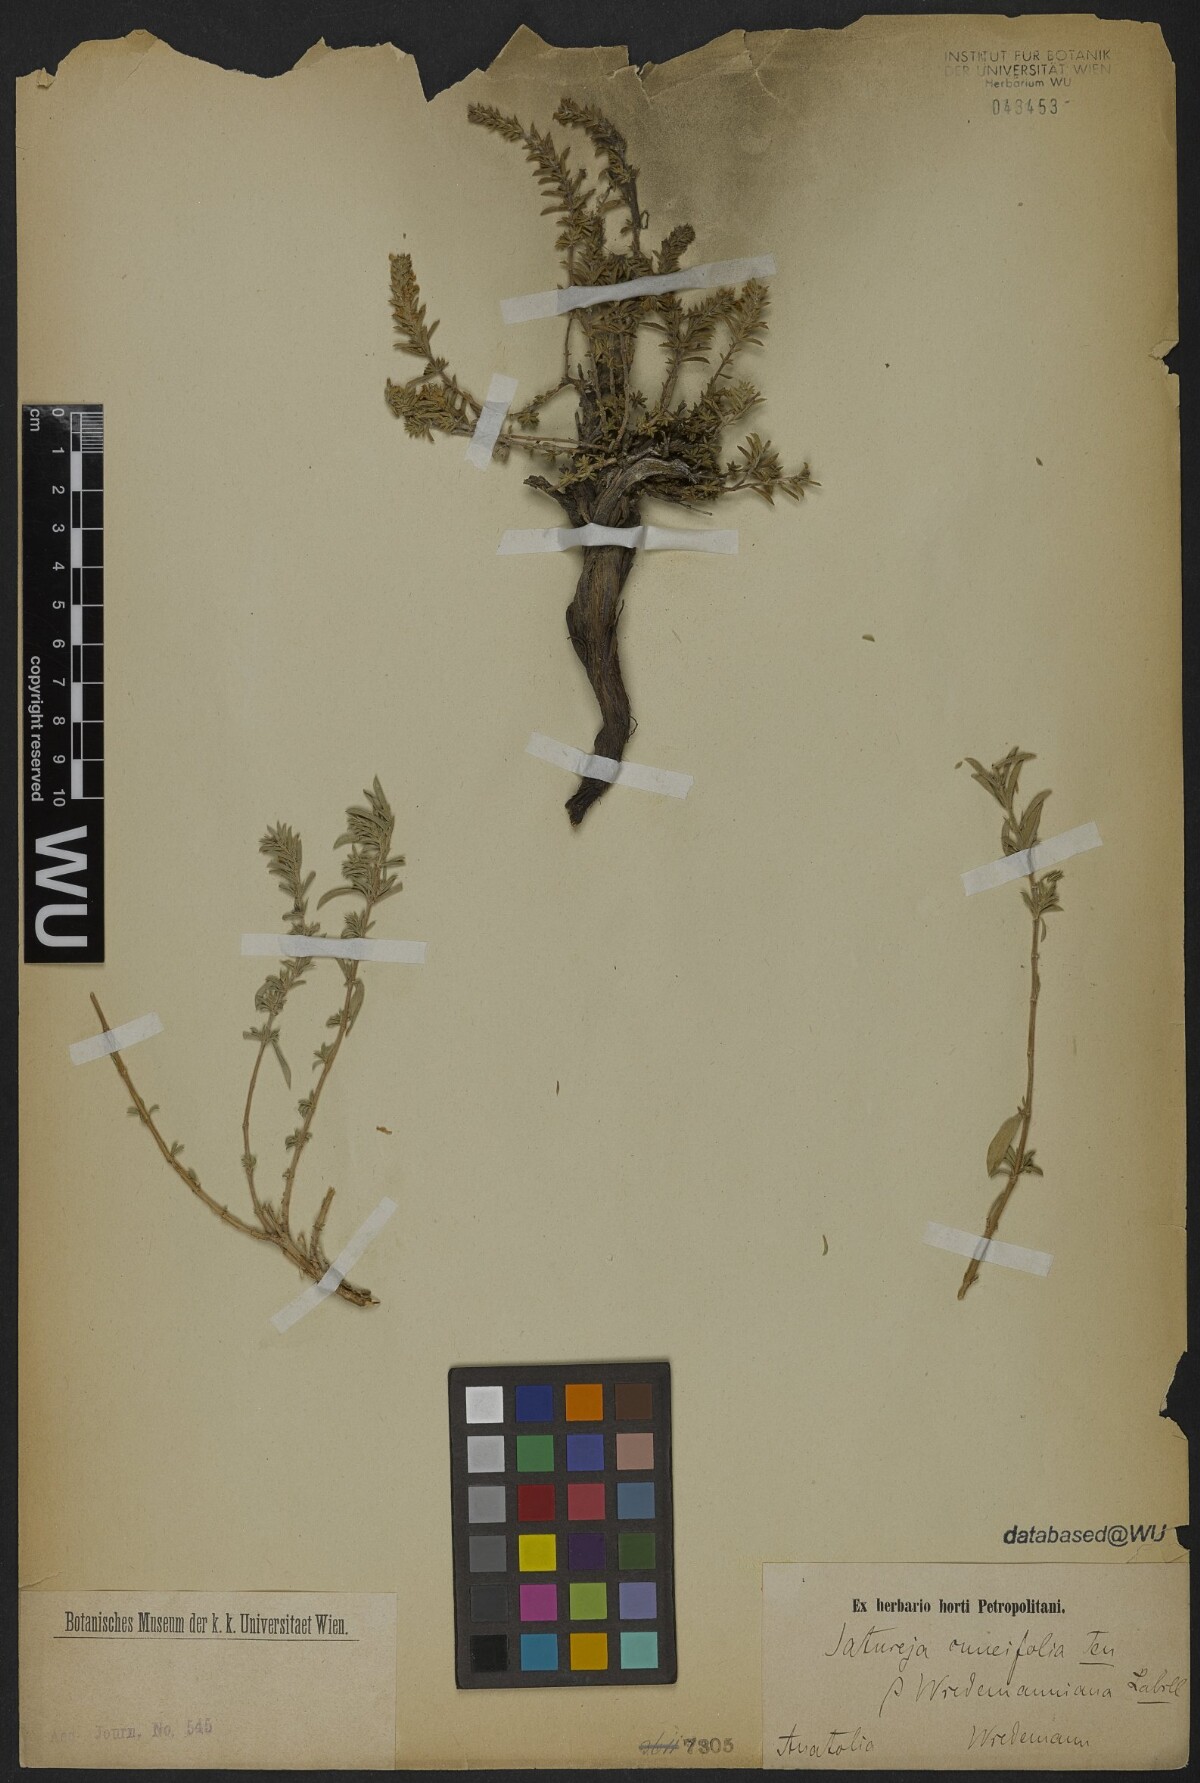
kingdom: Plantae
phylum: Tracheophyta
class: Magnoliopsida
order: Lamiales
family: Lamiaceae
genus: Satureja
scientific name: Satureja cuneifolia
